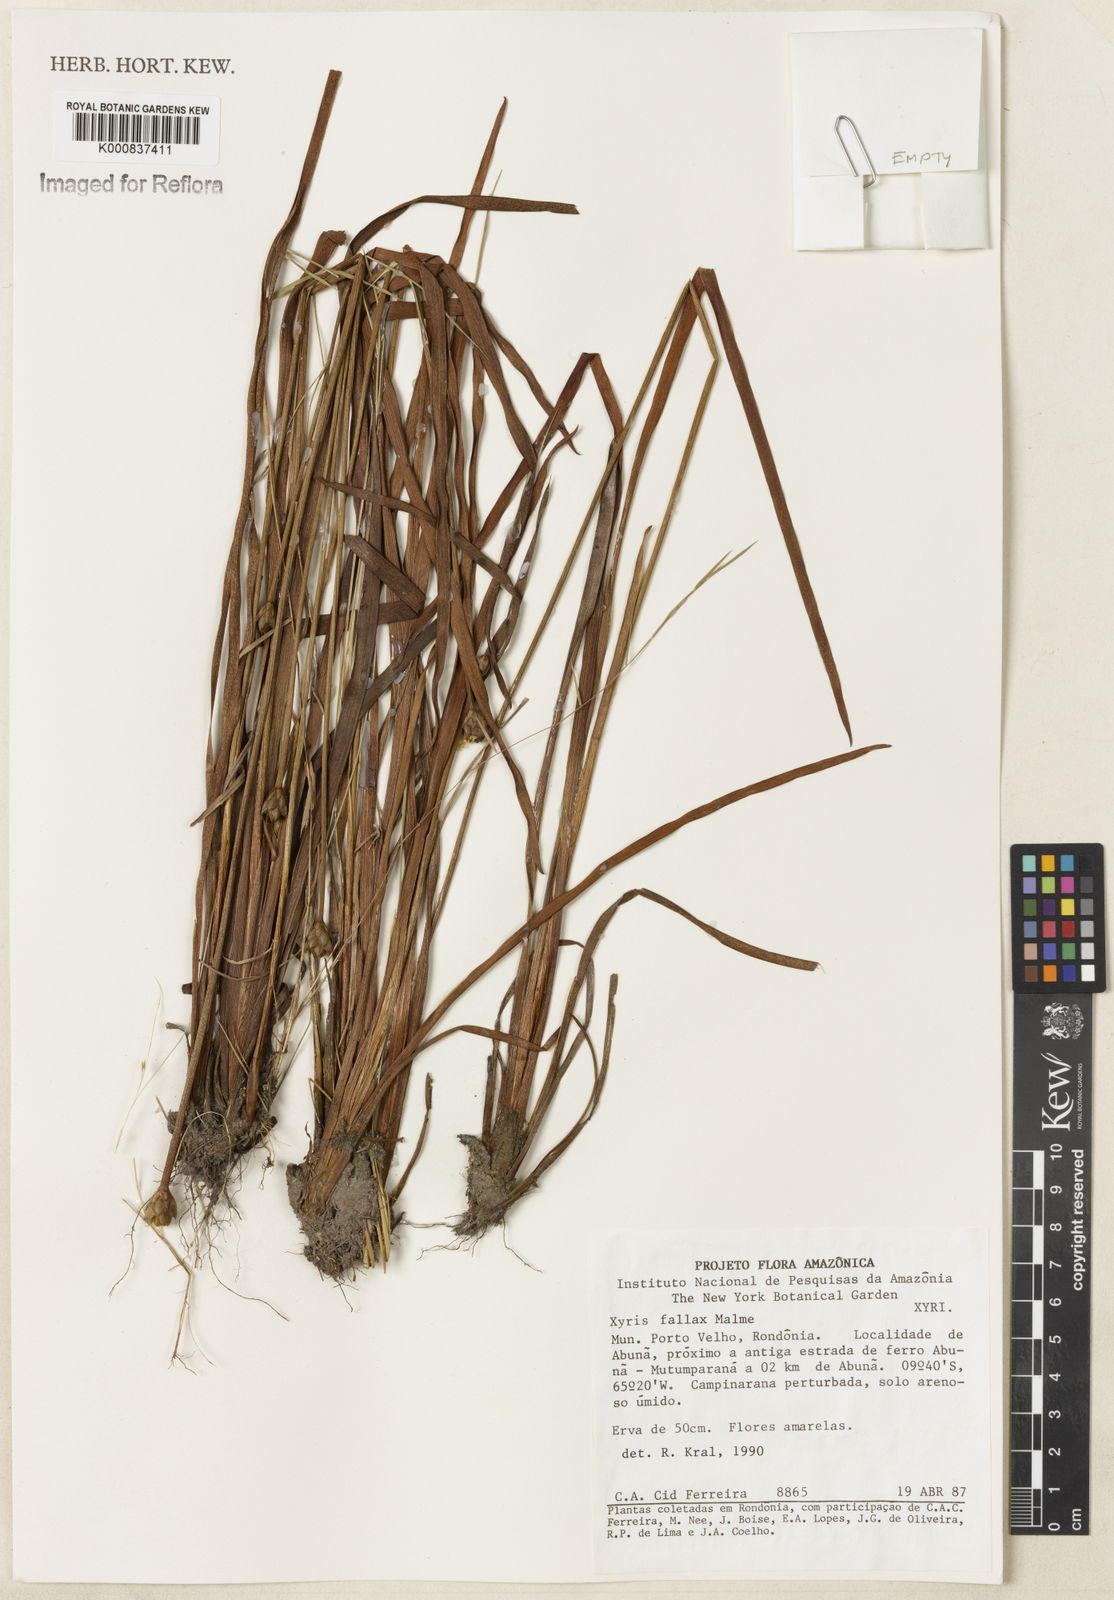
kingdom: Plantae
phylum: Tracheophyta
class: Liliopsida
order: Poales
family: Xyridaceae
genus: Xyris
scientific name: Xyris fallax
